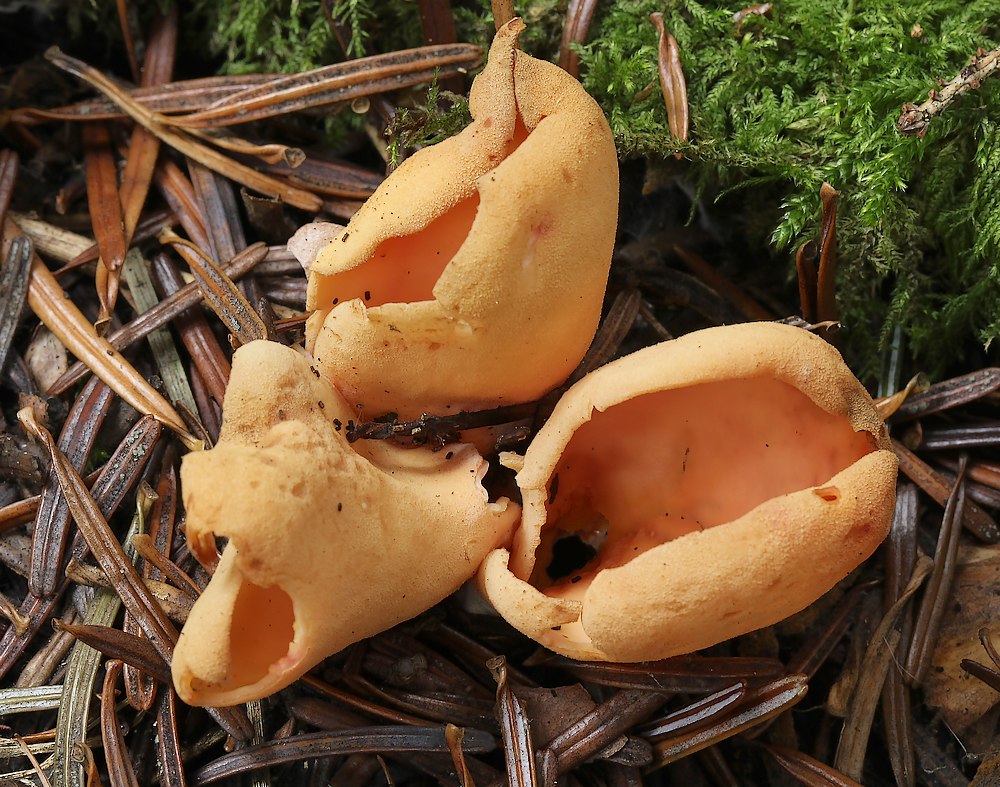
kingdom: Fungi
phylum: Ascomycota
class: Pezizomycetes
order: Pezizales
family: Otideaceae
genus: Otidea
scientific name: Otidea onotica
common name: æsel-ørebæger
